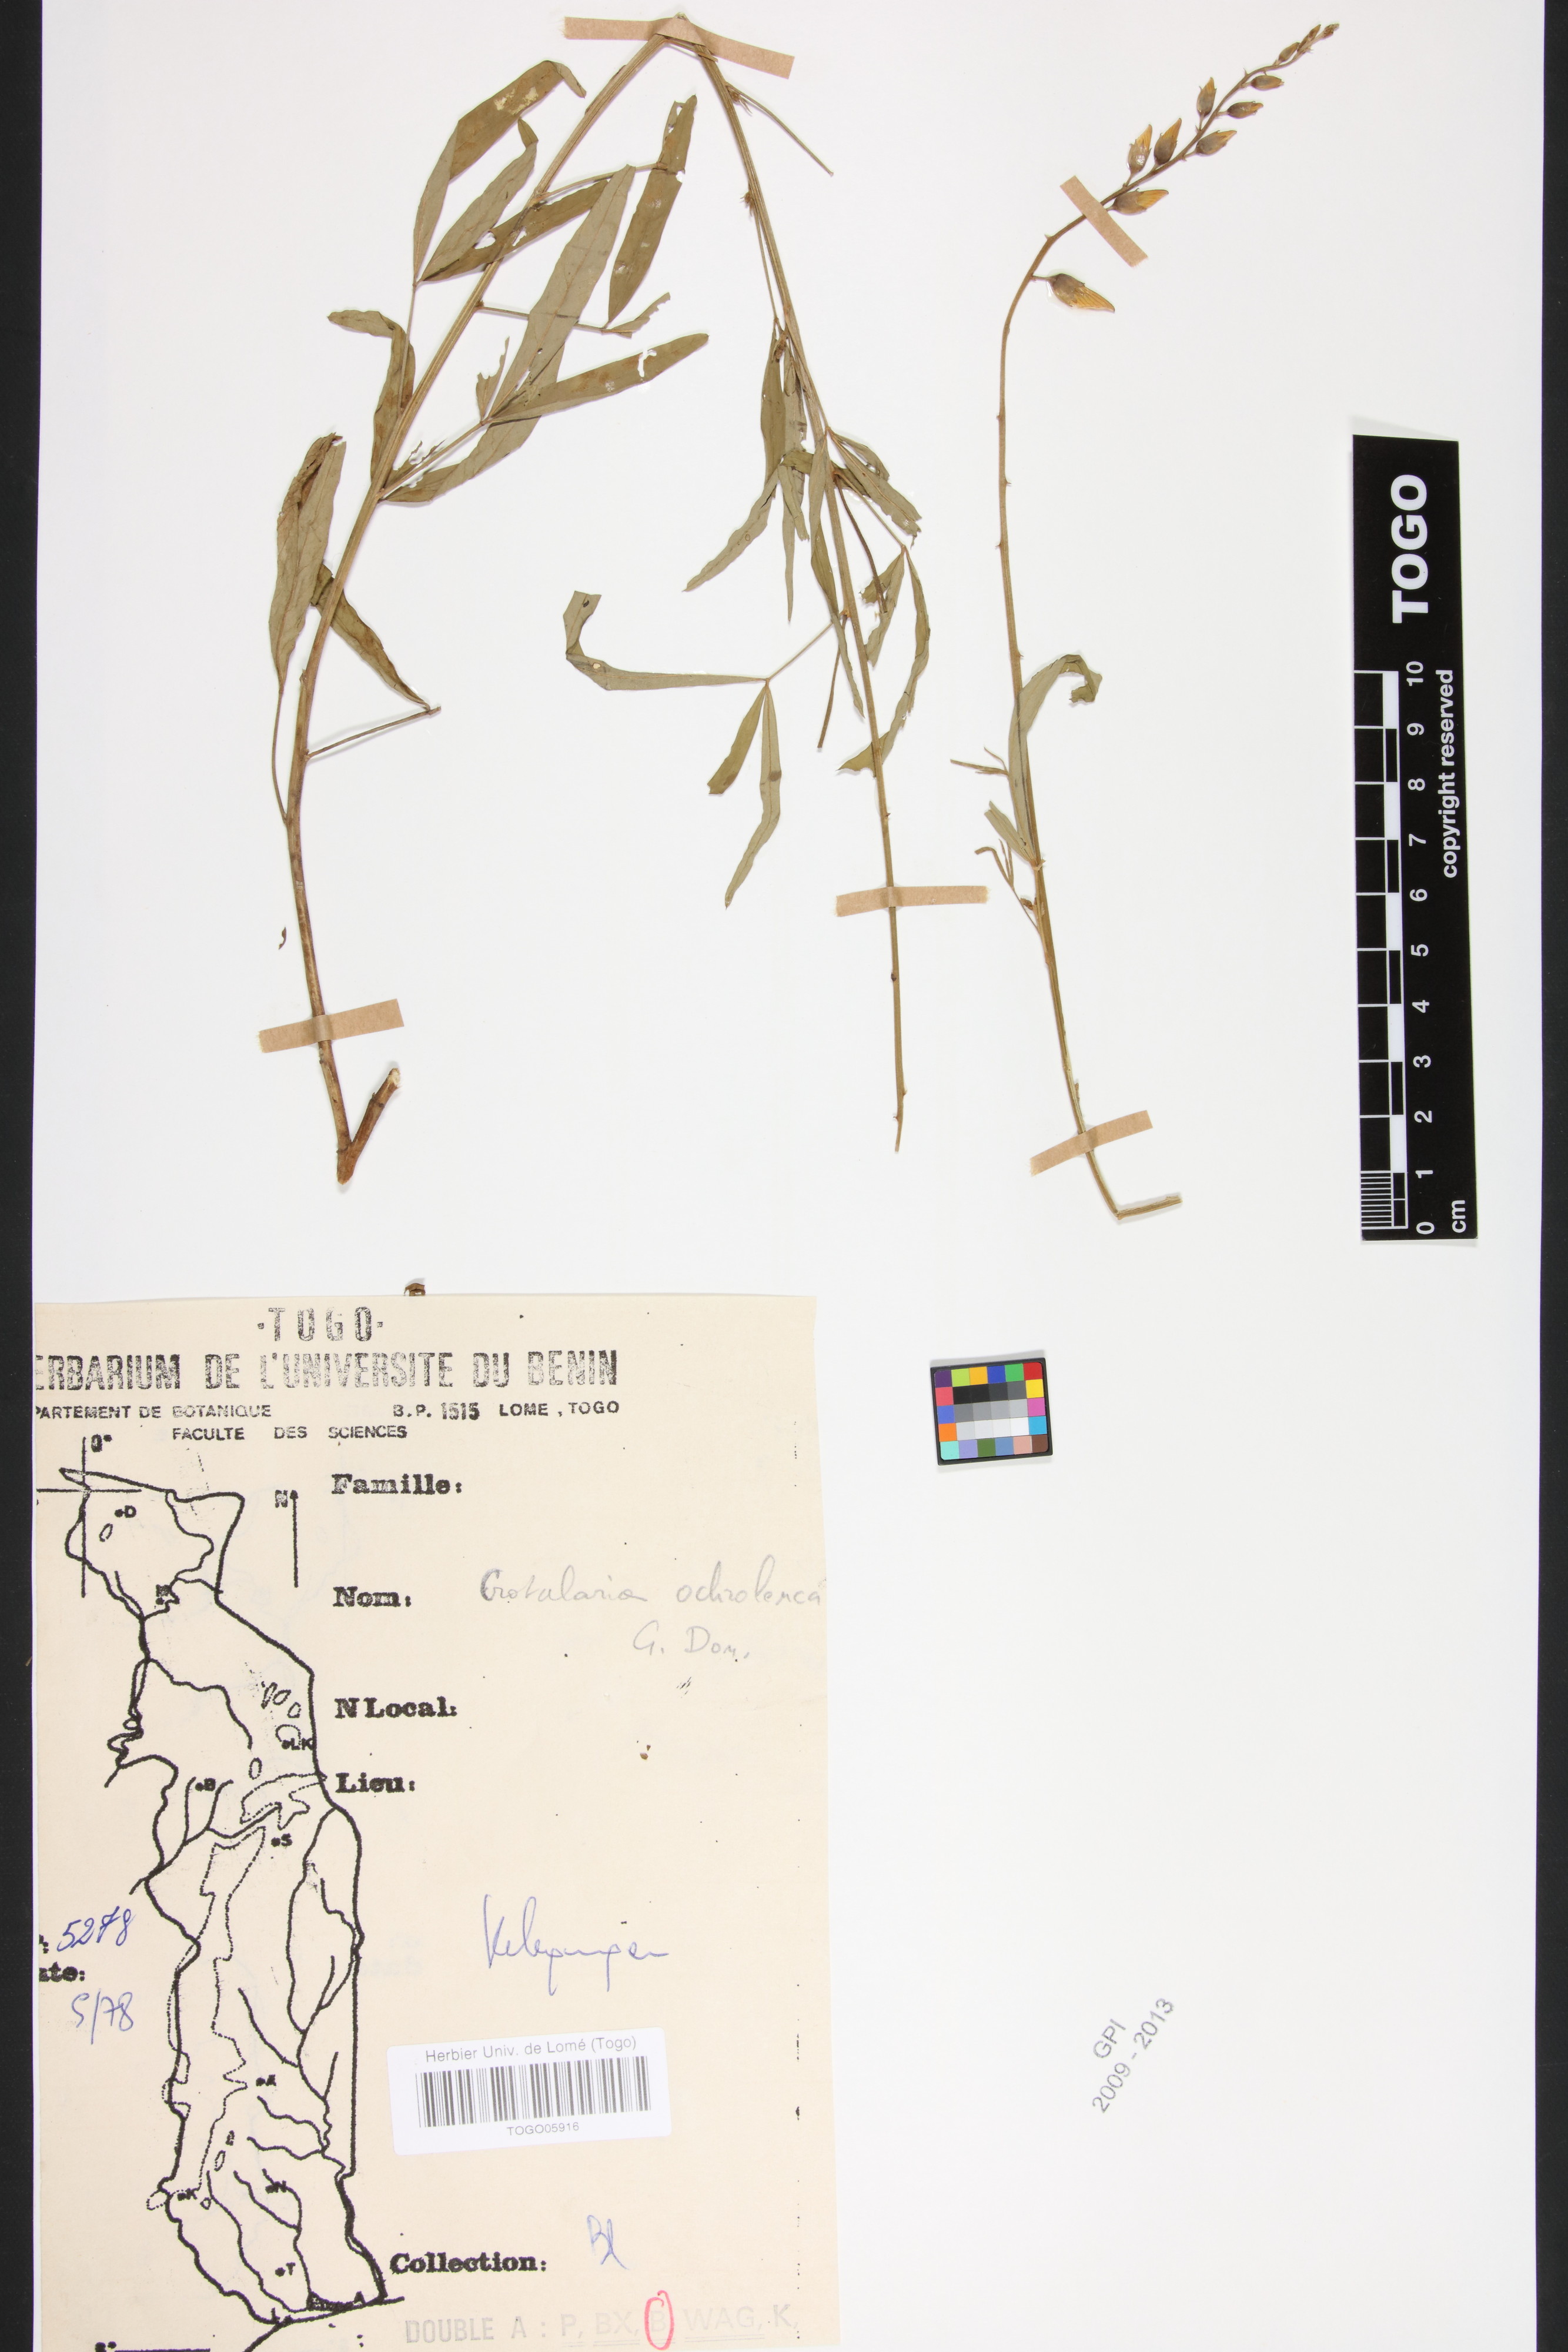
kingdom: Plantae
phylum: Tracheophyta
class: Magnoliopsida
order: Fabales
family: Fabaceae
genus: Crotalaria
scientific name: Crotalaria ochroleuca
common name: Slender leaf rattlebox
